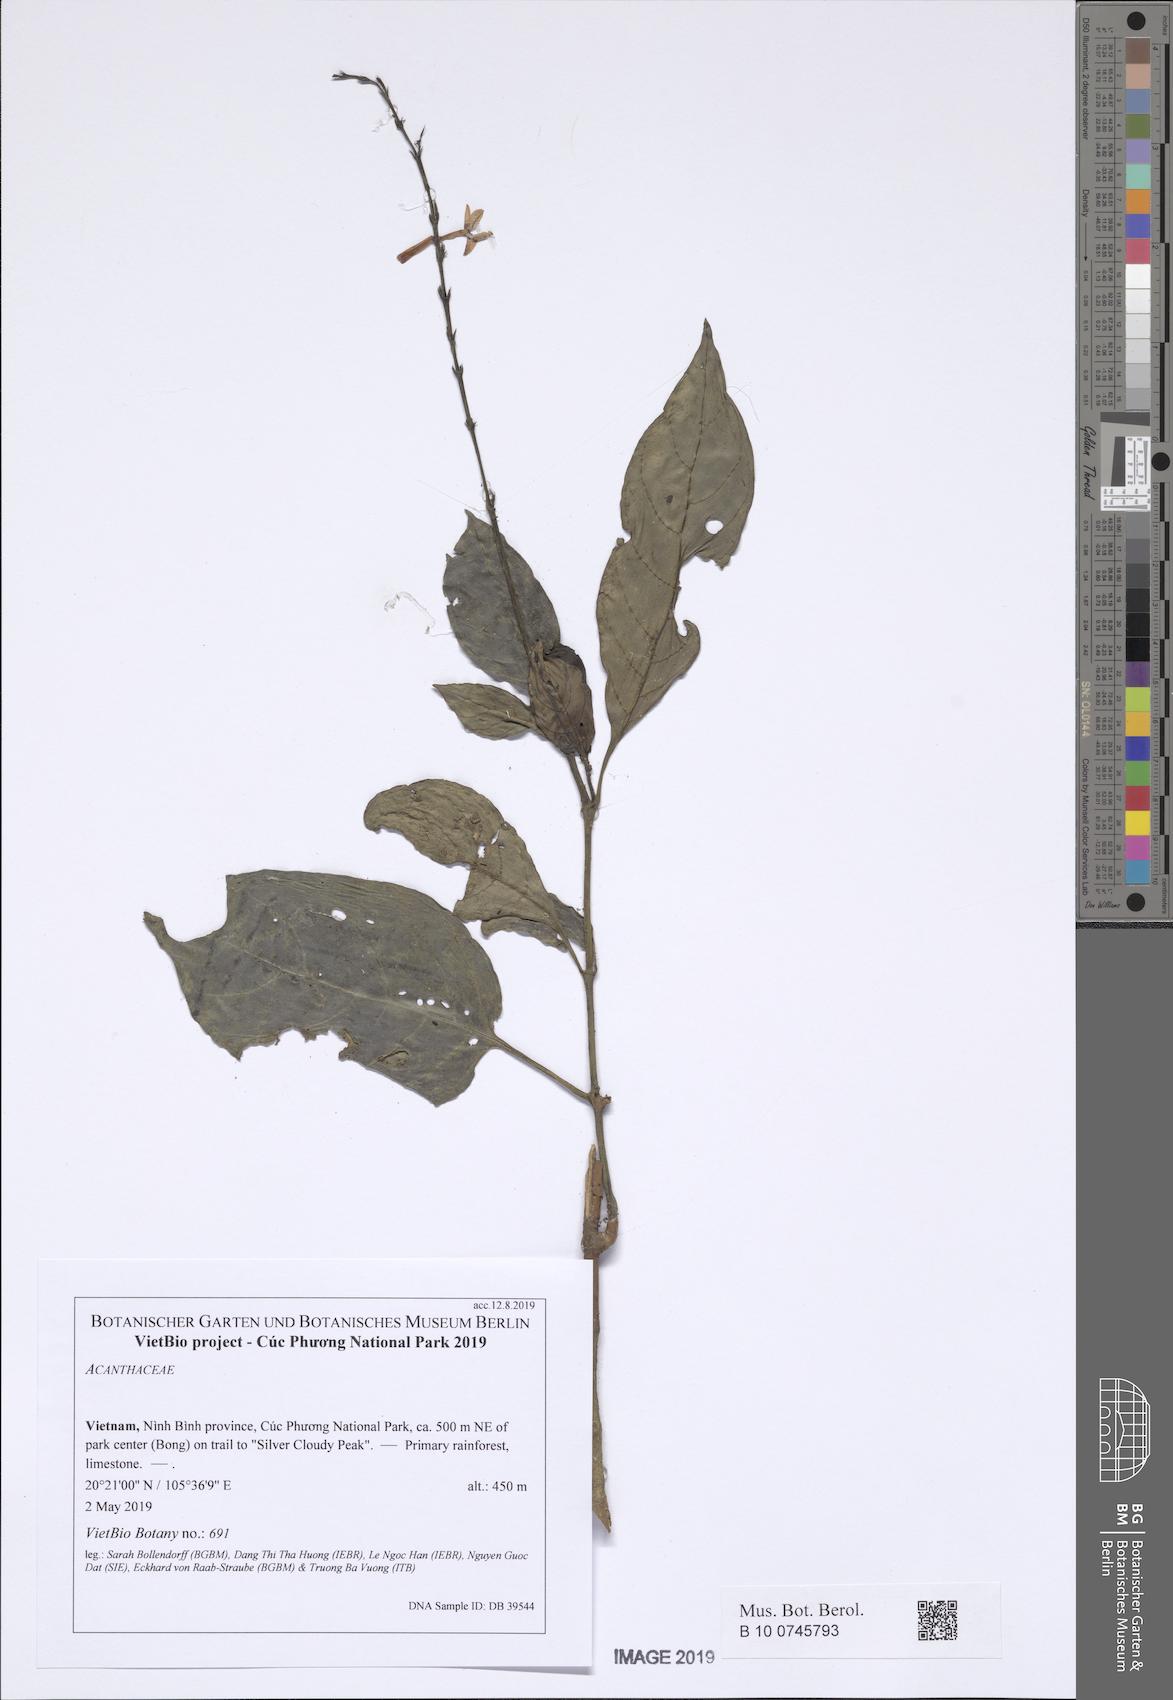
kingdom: Plantae
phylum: Tracheophyta
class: Magnoliopsida
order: Lamiales
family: Acanthaceae
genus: Pseuderanthemum
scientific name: Pseuderanthemum crenulatum
